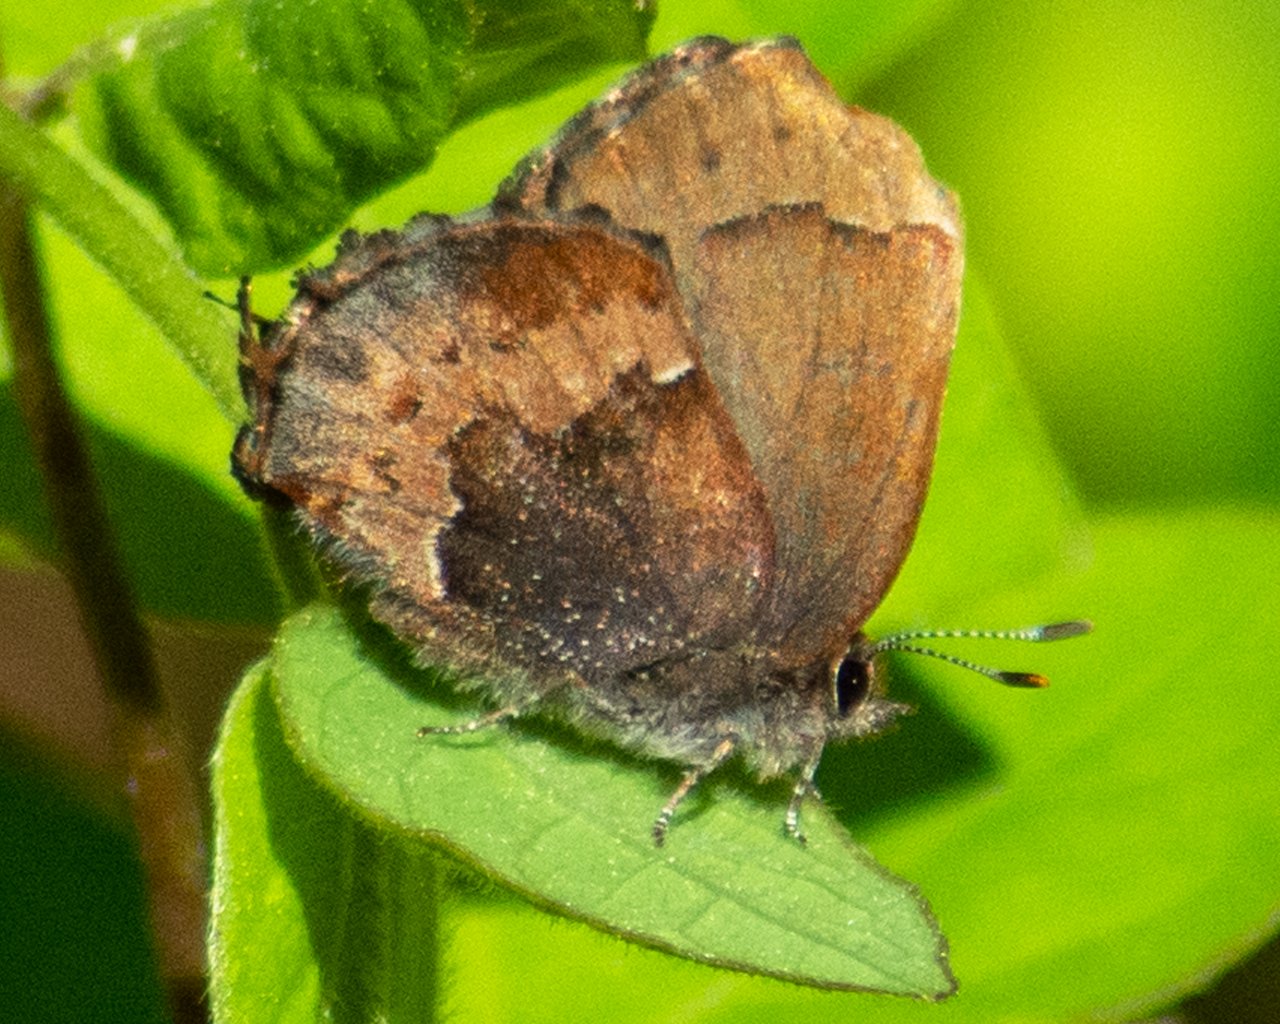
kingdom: Animalia
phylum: Arthropoda
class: Insecta
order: Lepidoptera
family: Lycaenidae
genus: Incisalia
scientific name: Incisalia henrici
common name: Henry's Elfin
